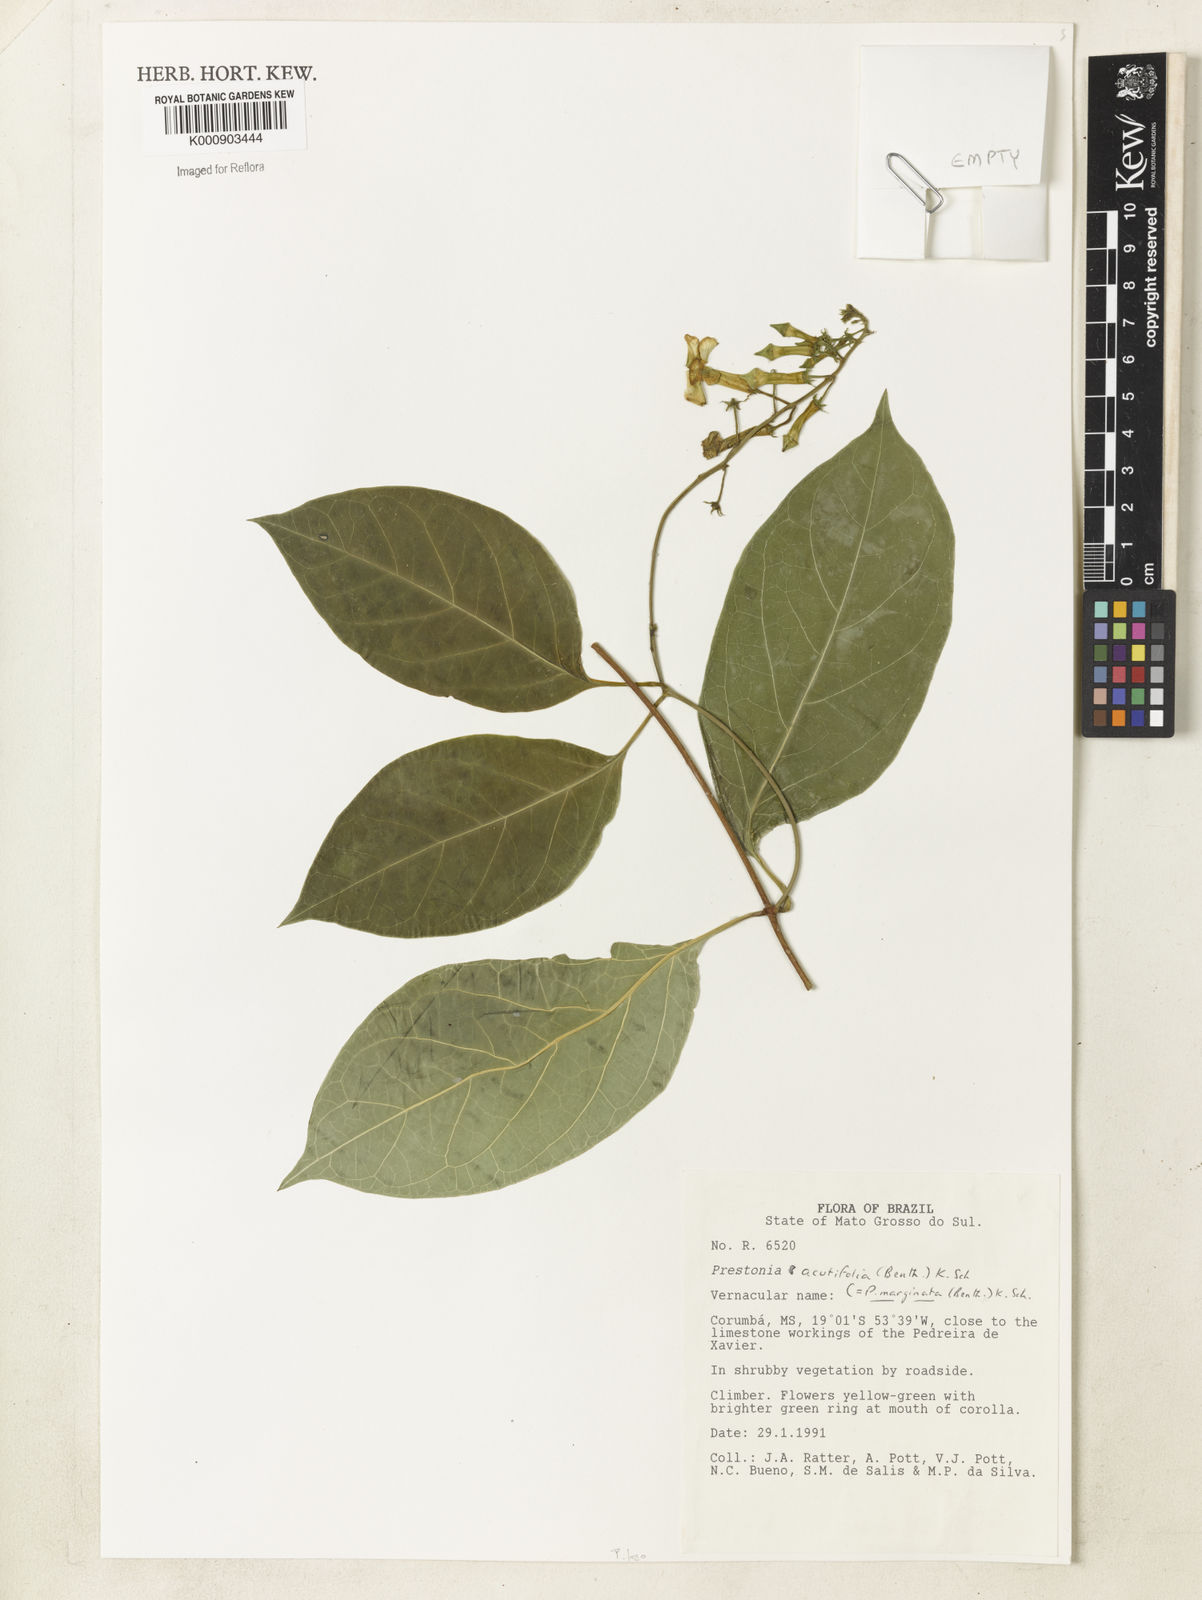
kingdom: Plantae
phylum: Tracheophyta
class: Magnoliopsida
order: Gentianales
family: Apocynaceae
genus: Prestonia
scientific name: Prestonia quinquangularis
